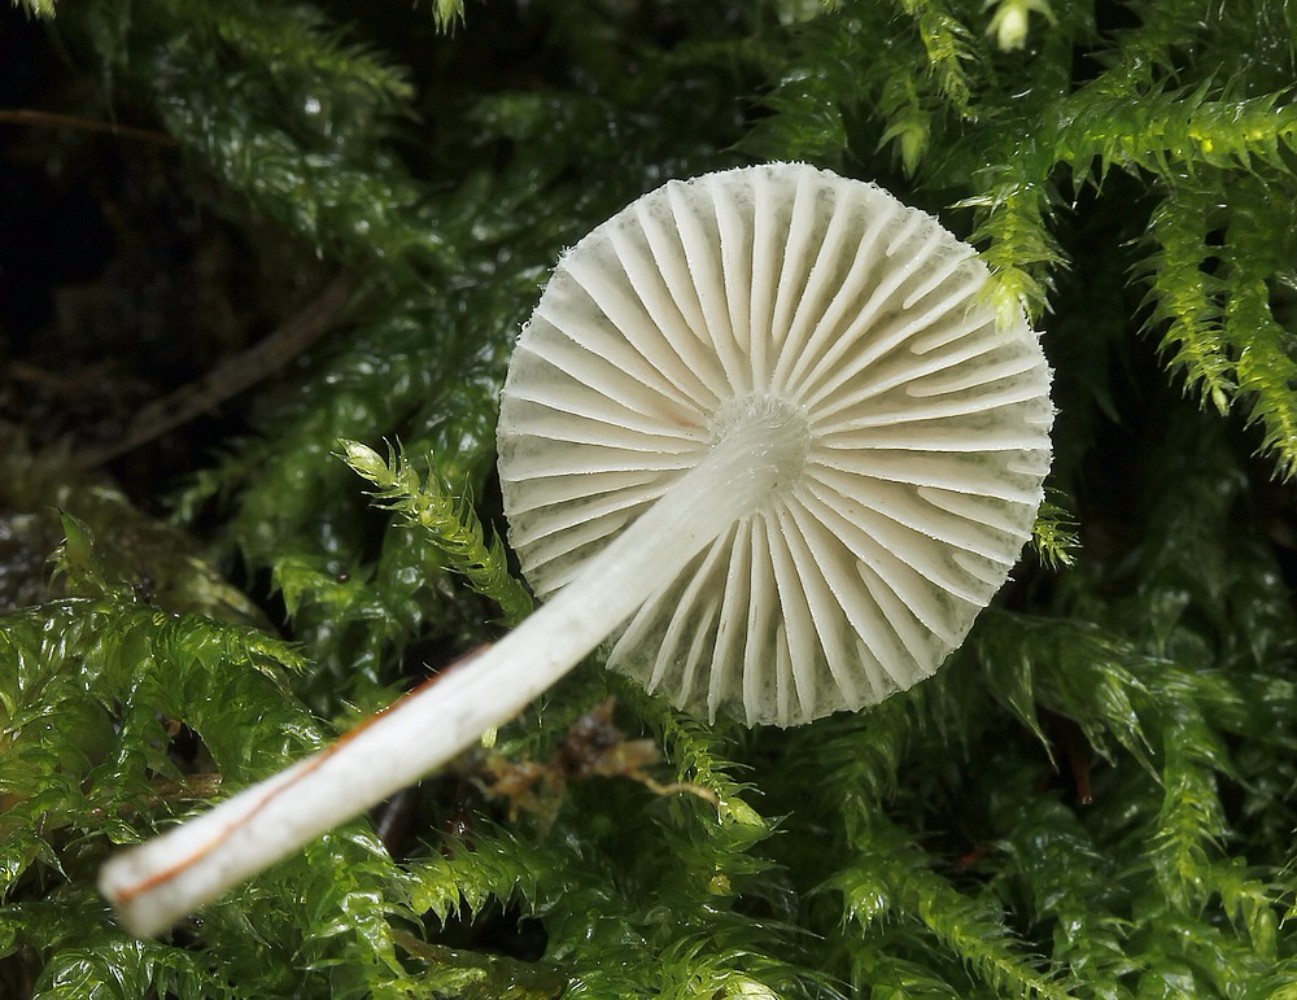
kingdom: Fungi
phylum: Basidiomycota
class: Agaricomycetes
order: Agaricales
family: Pluteaceae
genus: Pluteus
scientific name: Pluteus
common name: stivhåret skærmhat
